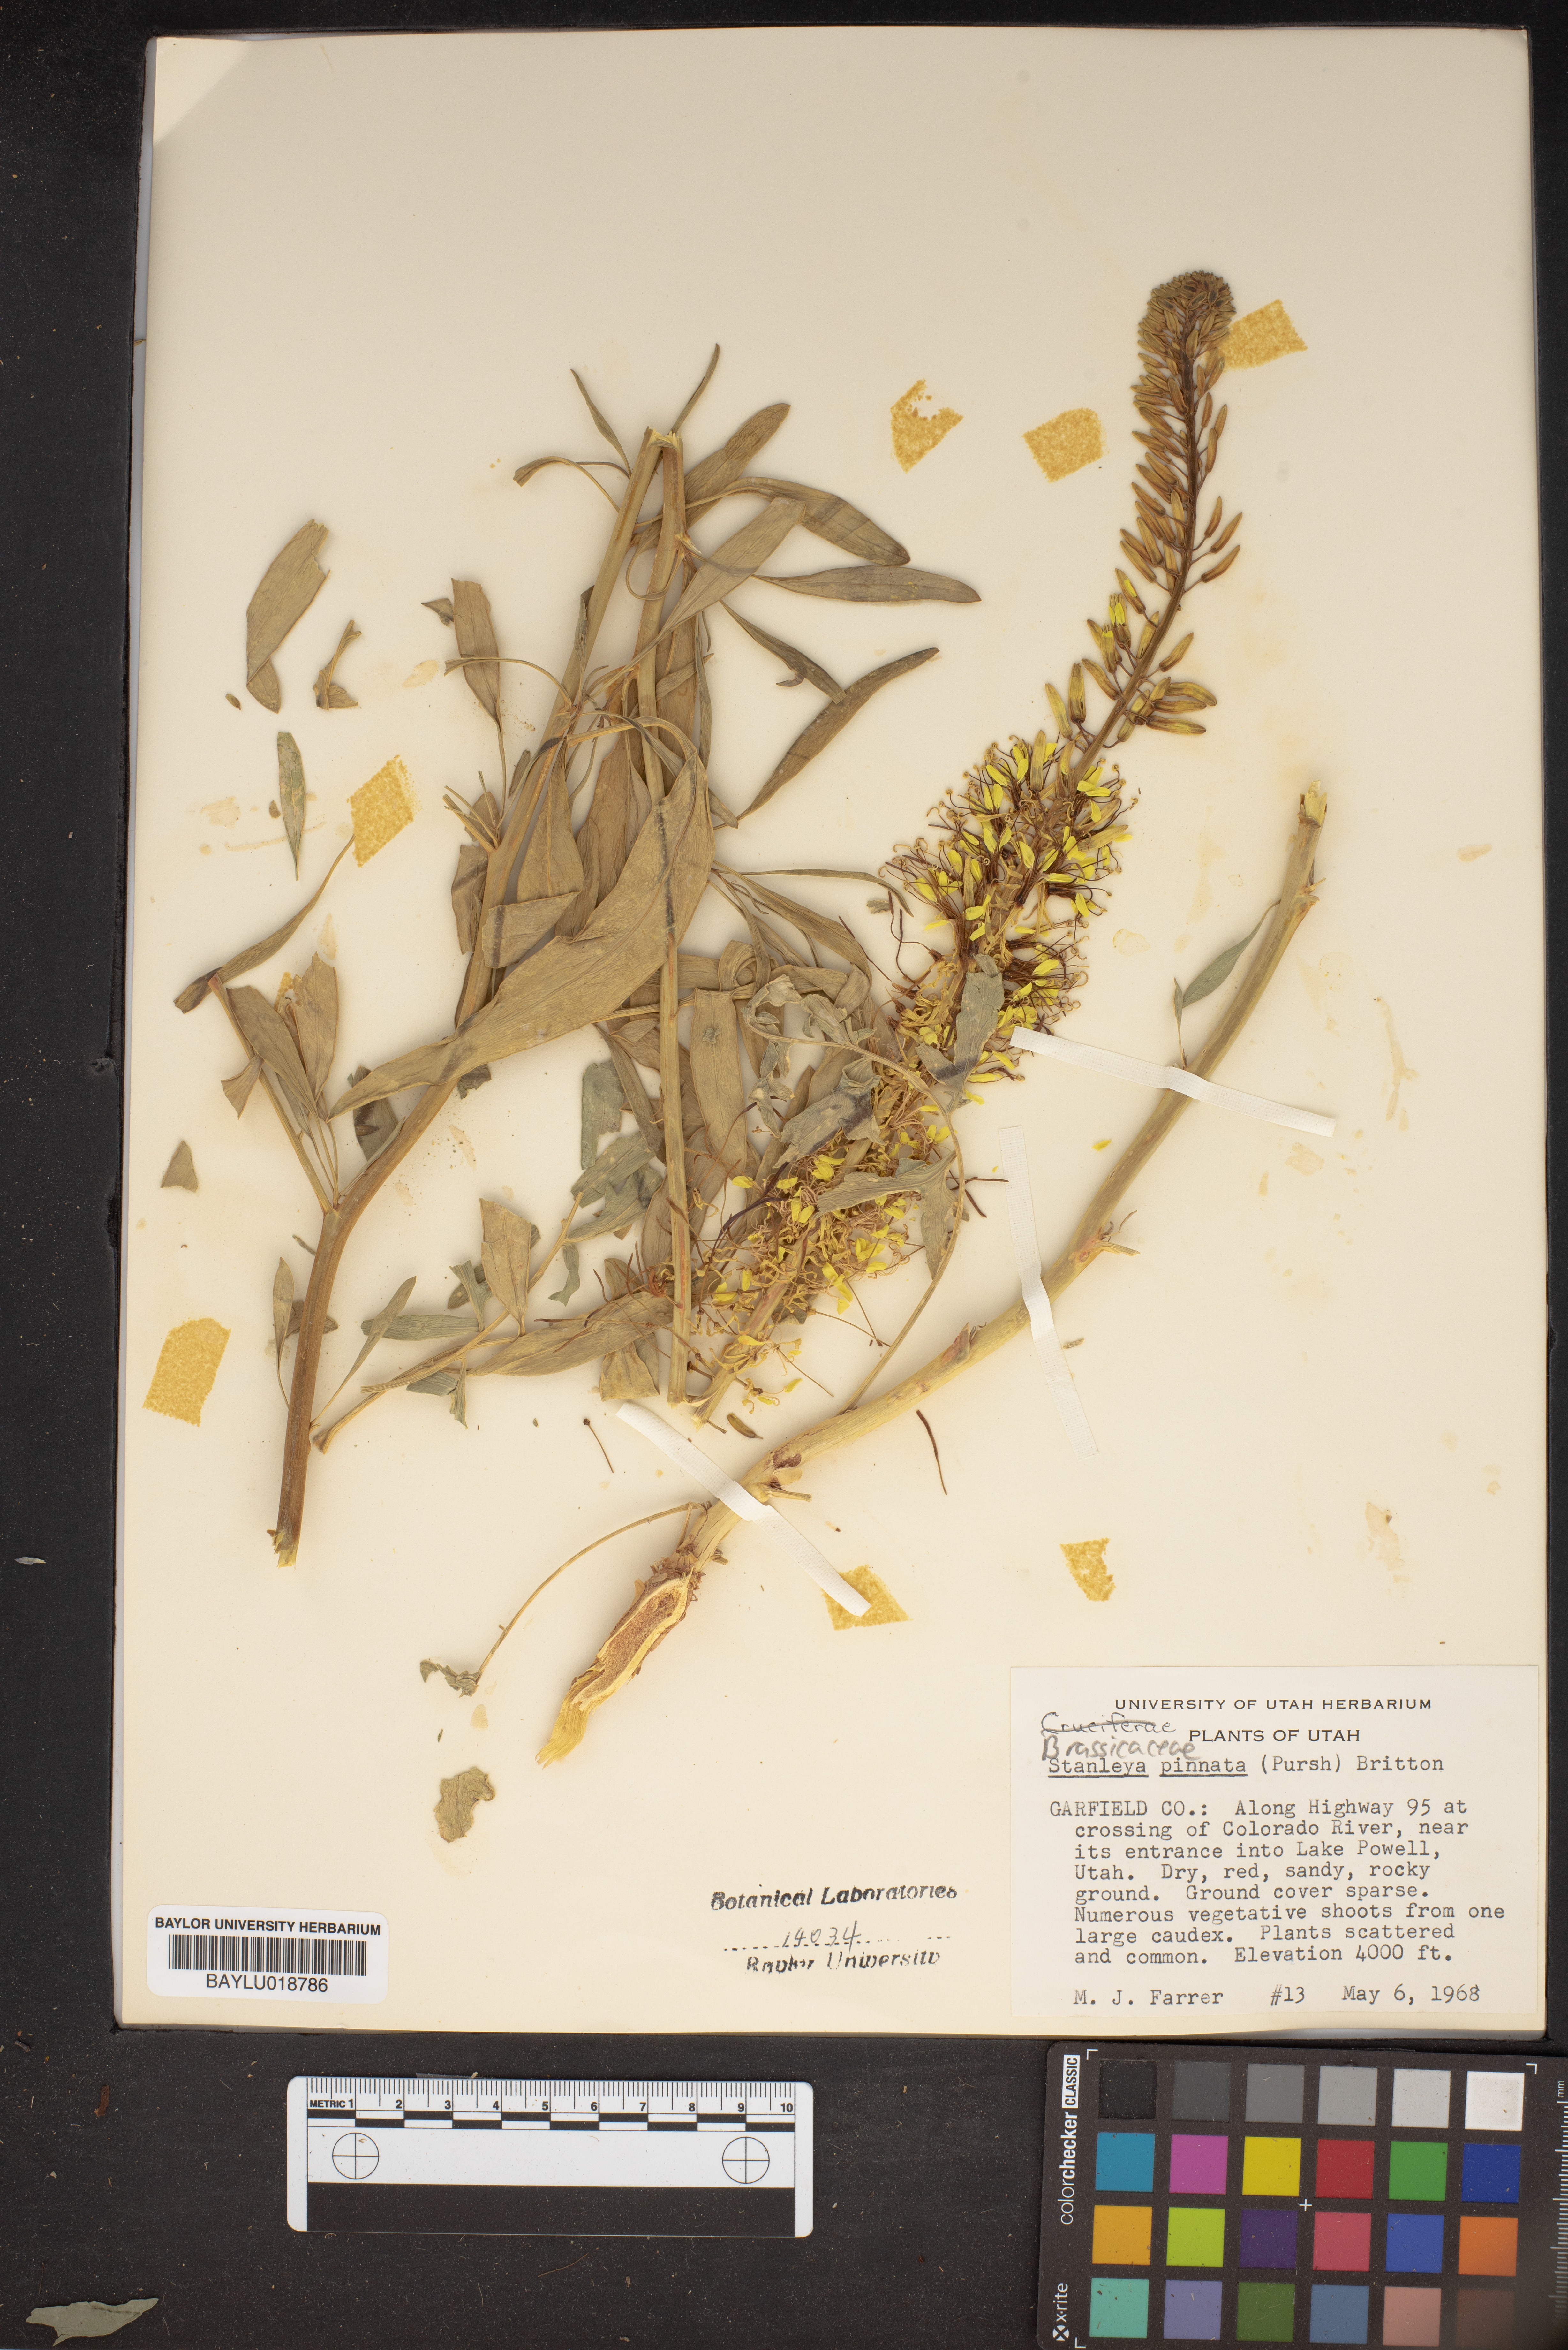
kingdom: Plantae
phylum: Tracheophyta
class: Magnoliopsida
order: Brassicales
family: Brassicaceae
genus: Stanleya
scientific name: Stanleya pinnata
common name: Prince's-plume
